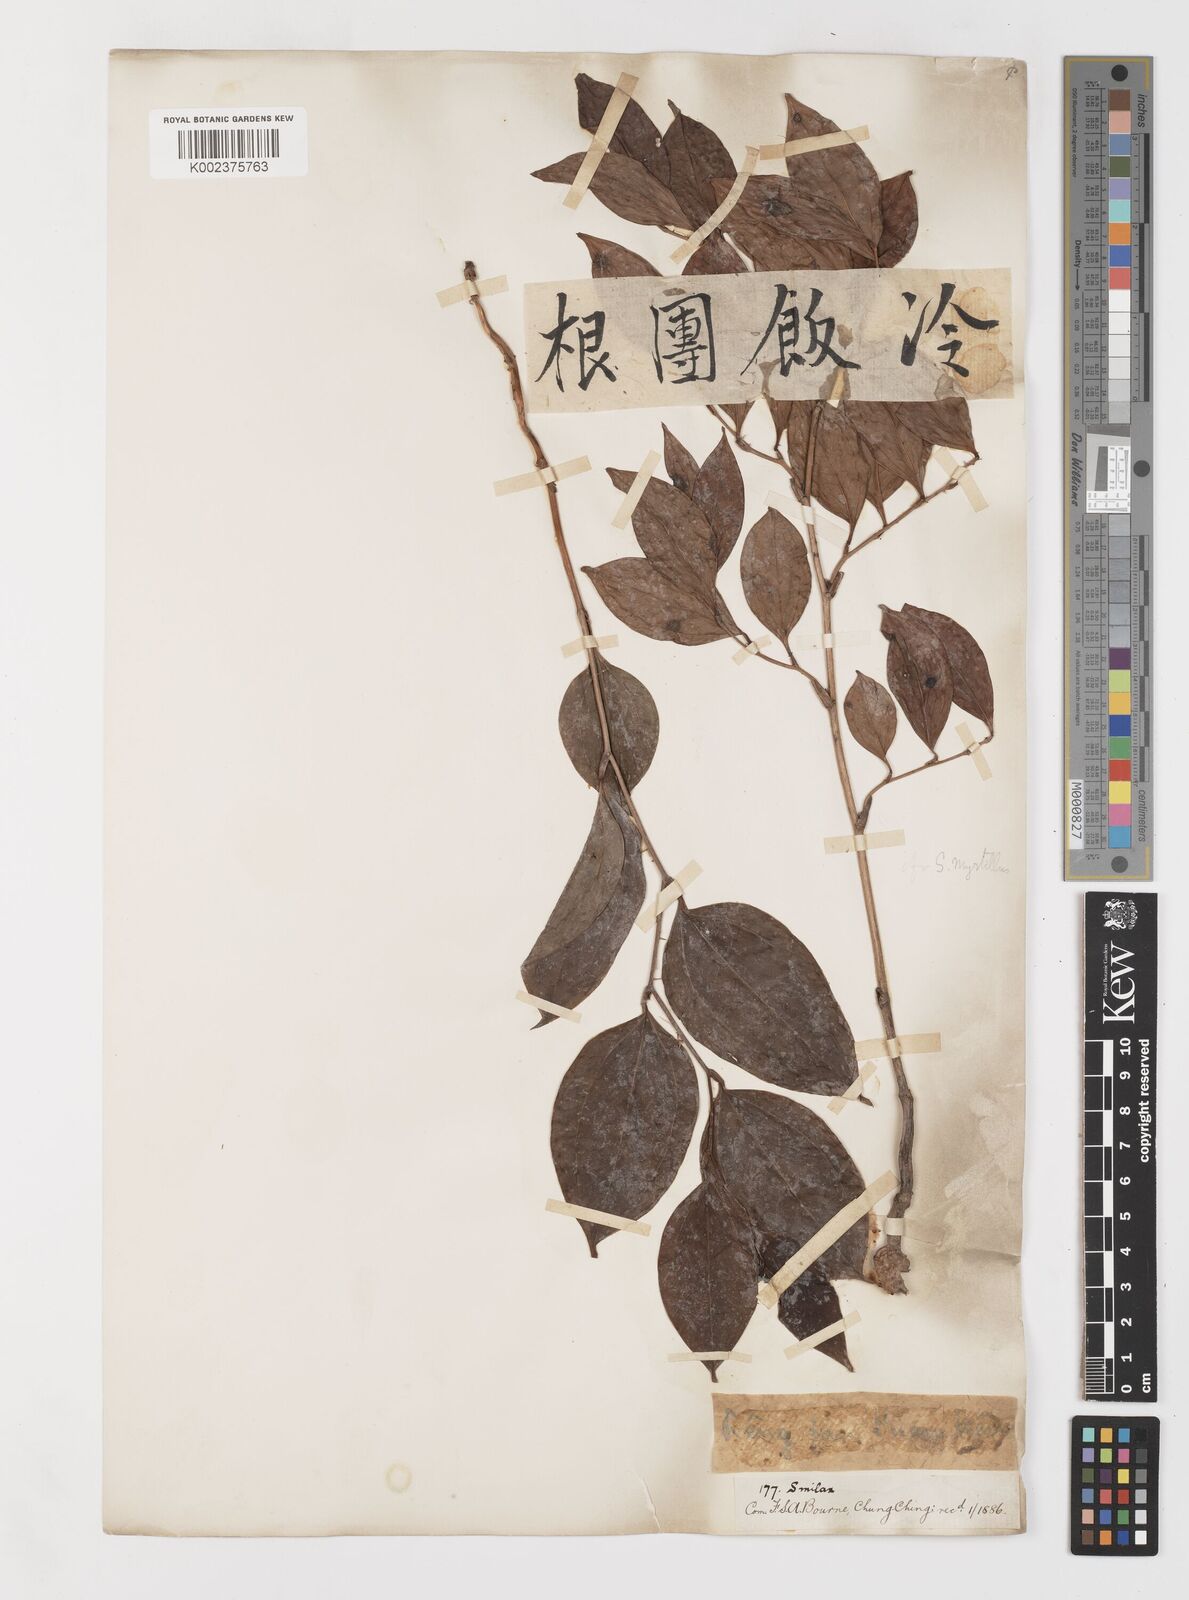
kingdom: Plantae
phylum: Tracheophyta
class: Liliopsida
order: Liliales
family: Smilacaceae
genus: Smilax
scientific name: Smilax china
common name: Chinaroot
